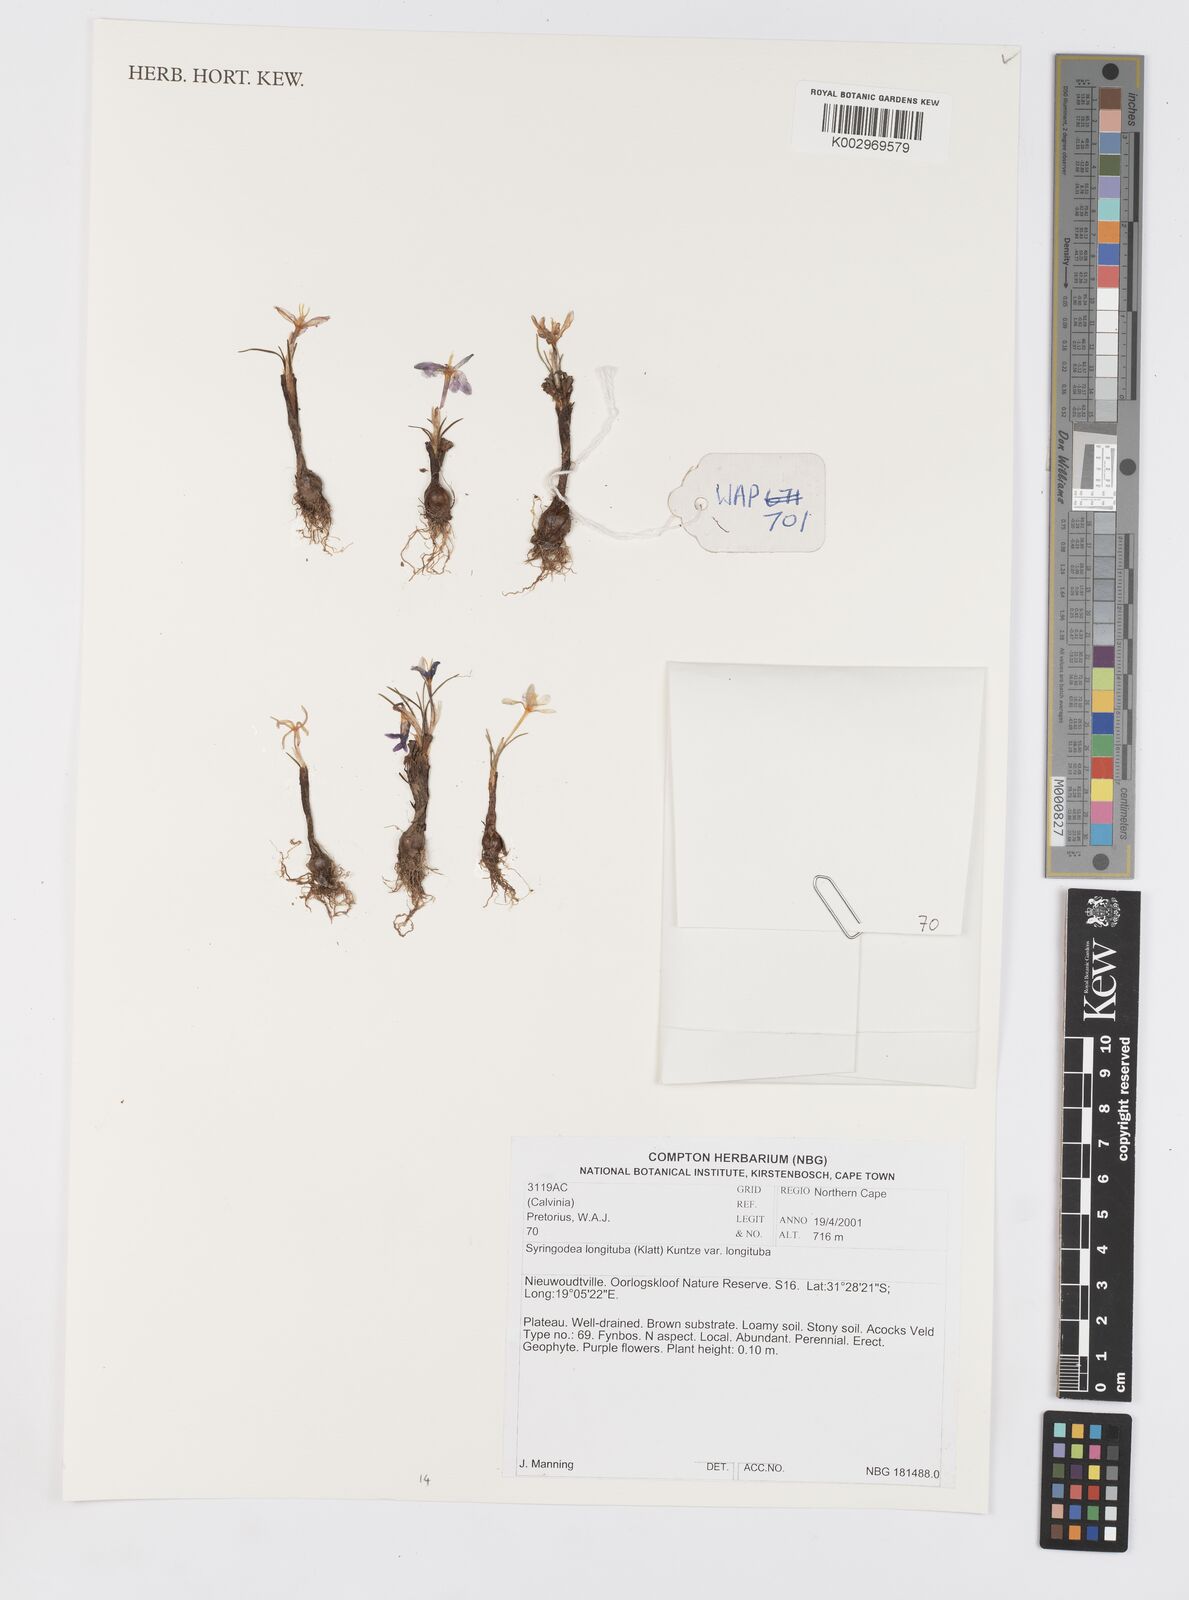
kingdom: Plantae
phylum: Tracheophyta
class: Liliopsida
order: Asparagales
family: Iridaceae
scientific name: Iridaceae
